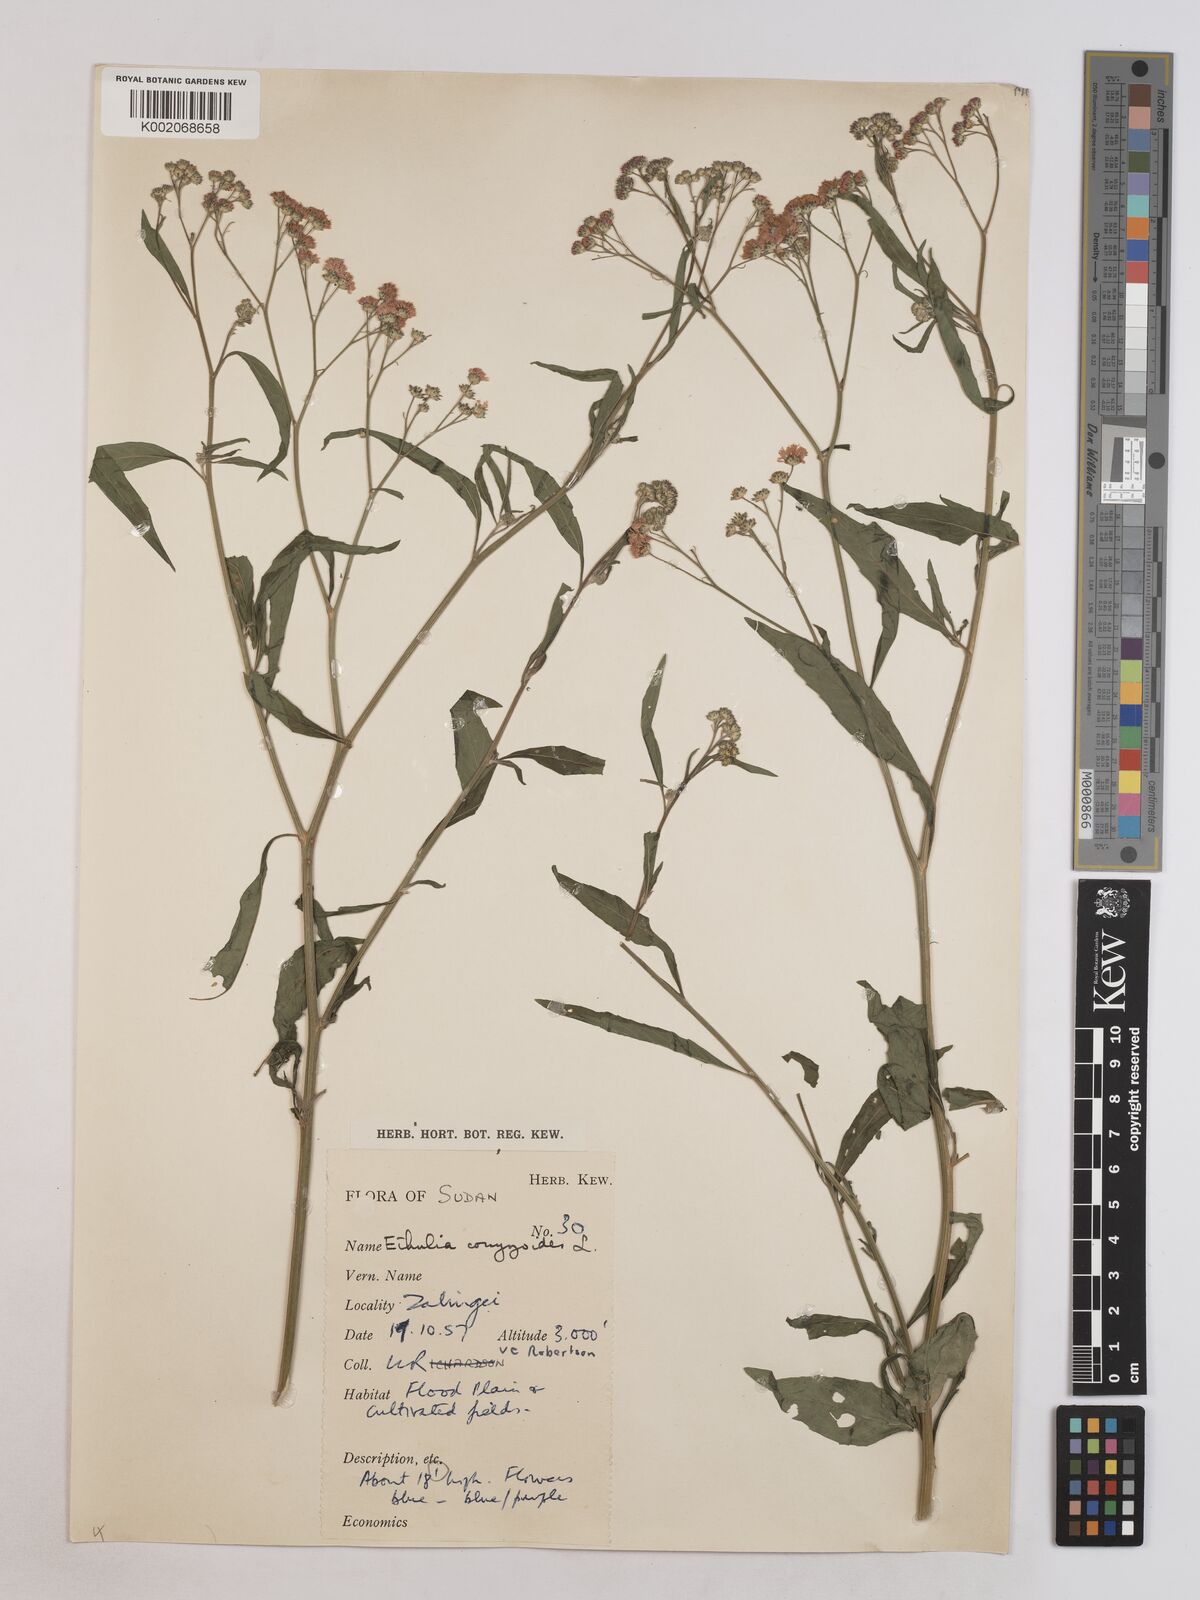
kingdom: Plantae
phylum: Tracheophyta
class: Magnoliopsida
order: Asterales
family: Asteraceae
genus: Ethulia
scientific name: Ethulia gracilis
